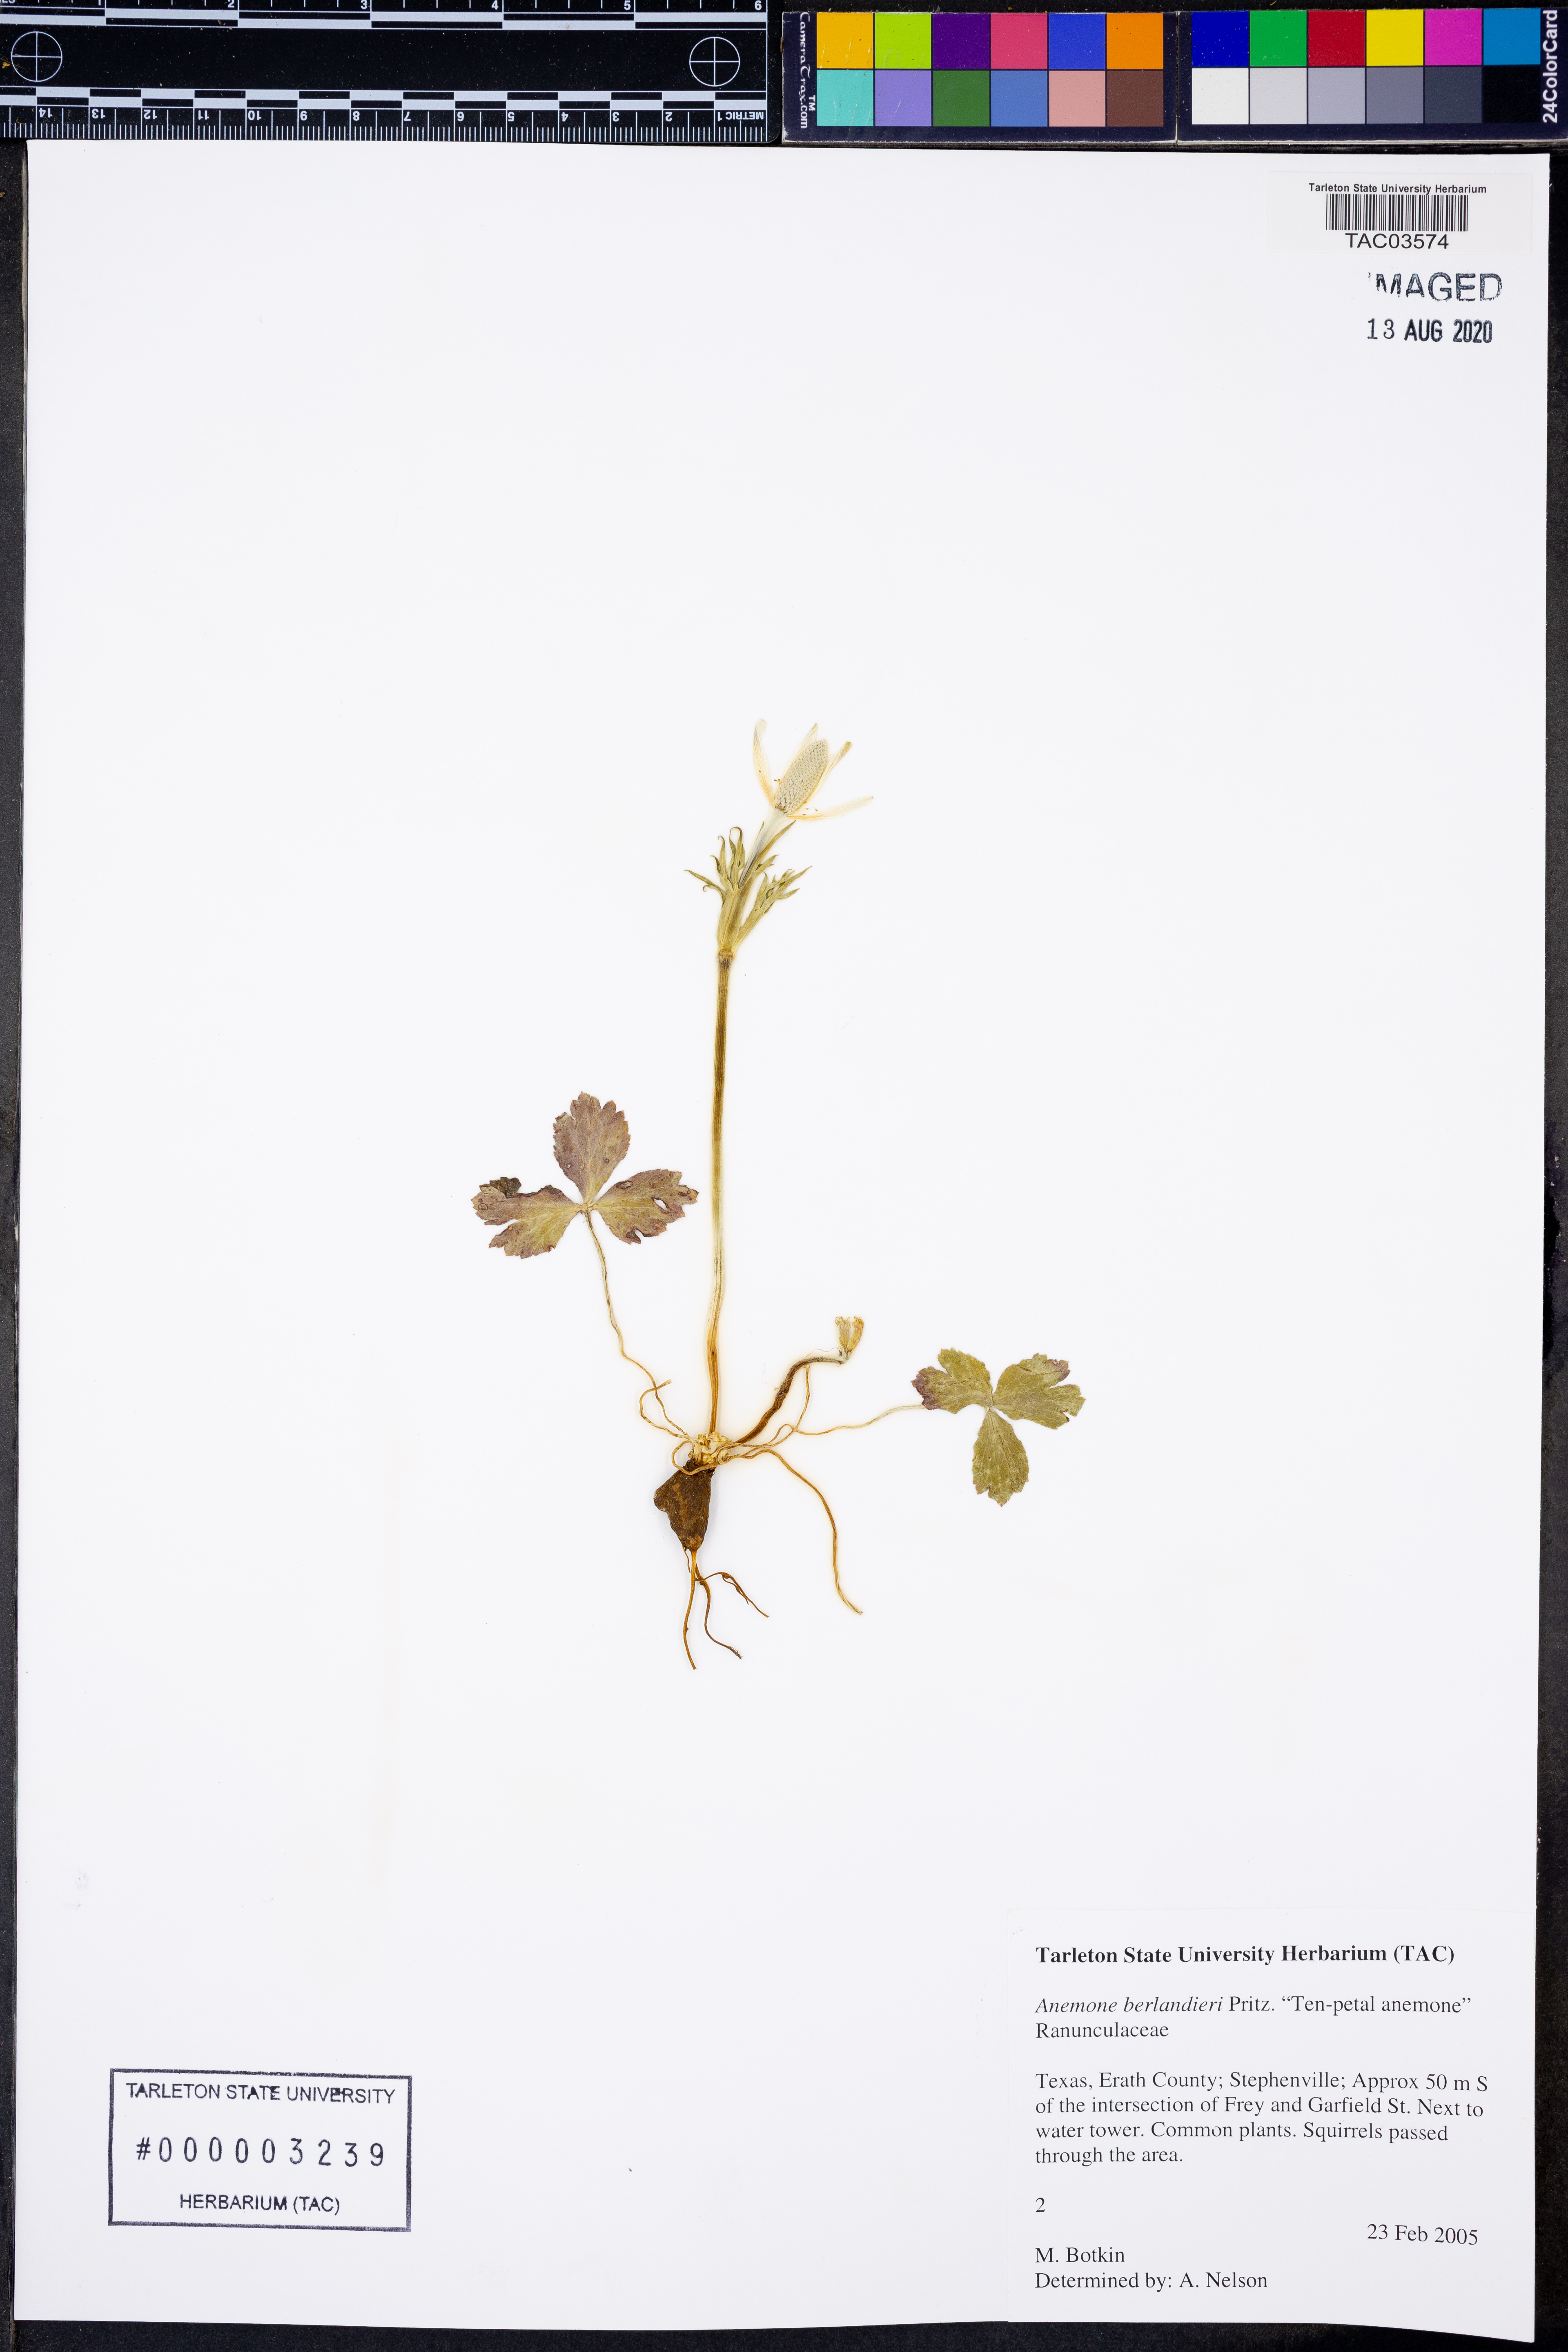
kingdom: Plantae
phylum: Tracheophyta
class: Magnoliopsida
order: Ranunculales
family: Ranunculaceae
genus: Anemone
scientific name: Anemone berlandieri
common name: Ten-petal anemone
